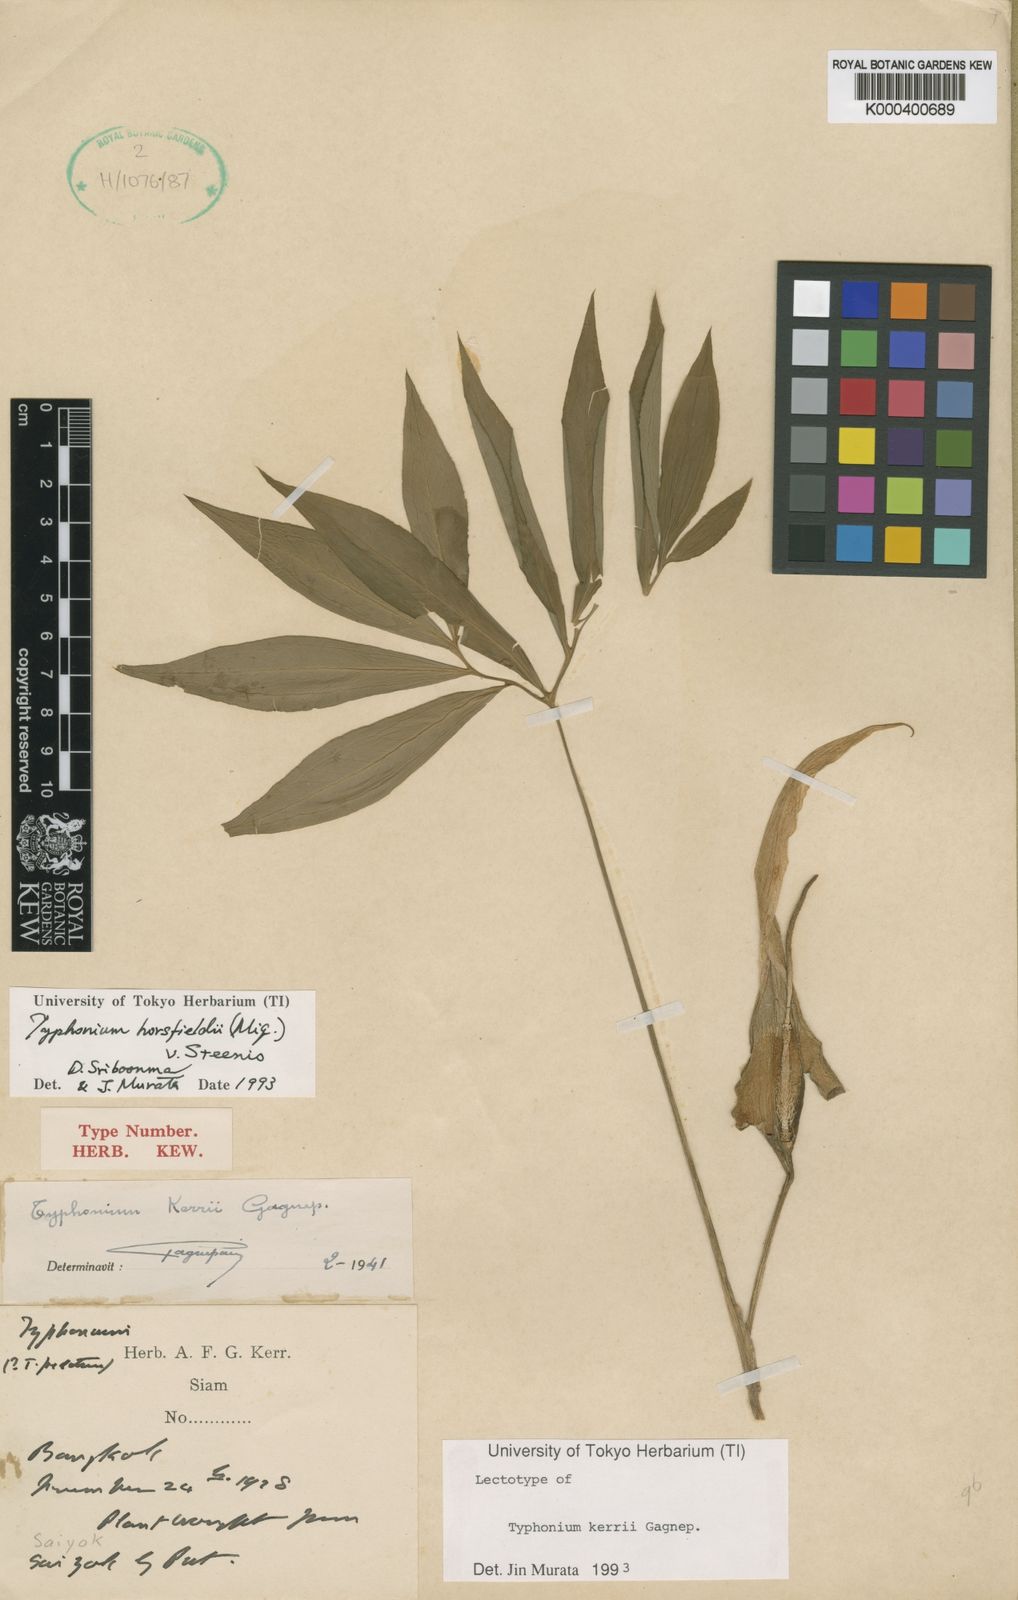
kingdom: Plantae
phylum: Tracheophyta
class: Liliopsida
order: Alismatales
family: Araceae
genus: Sauromatum
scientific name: Sauromatum horsfieldii
